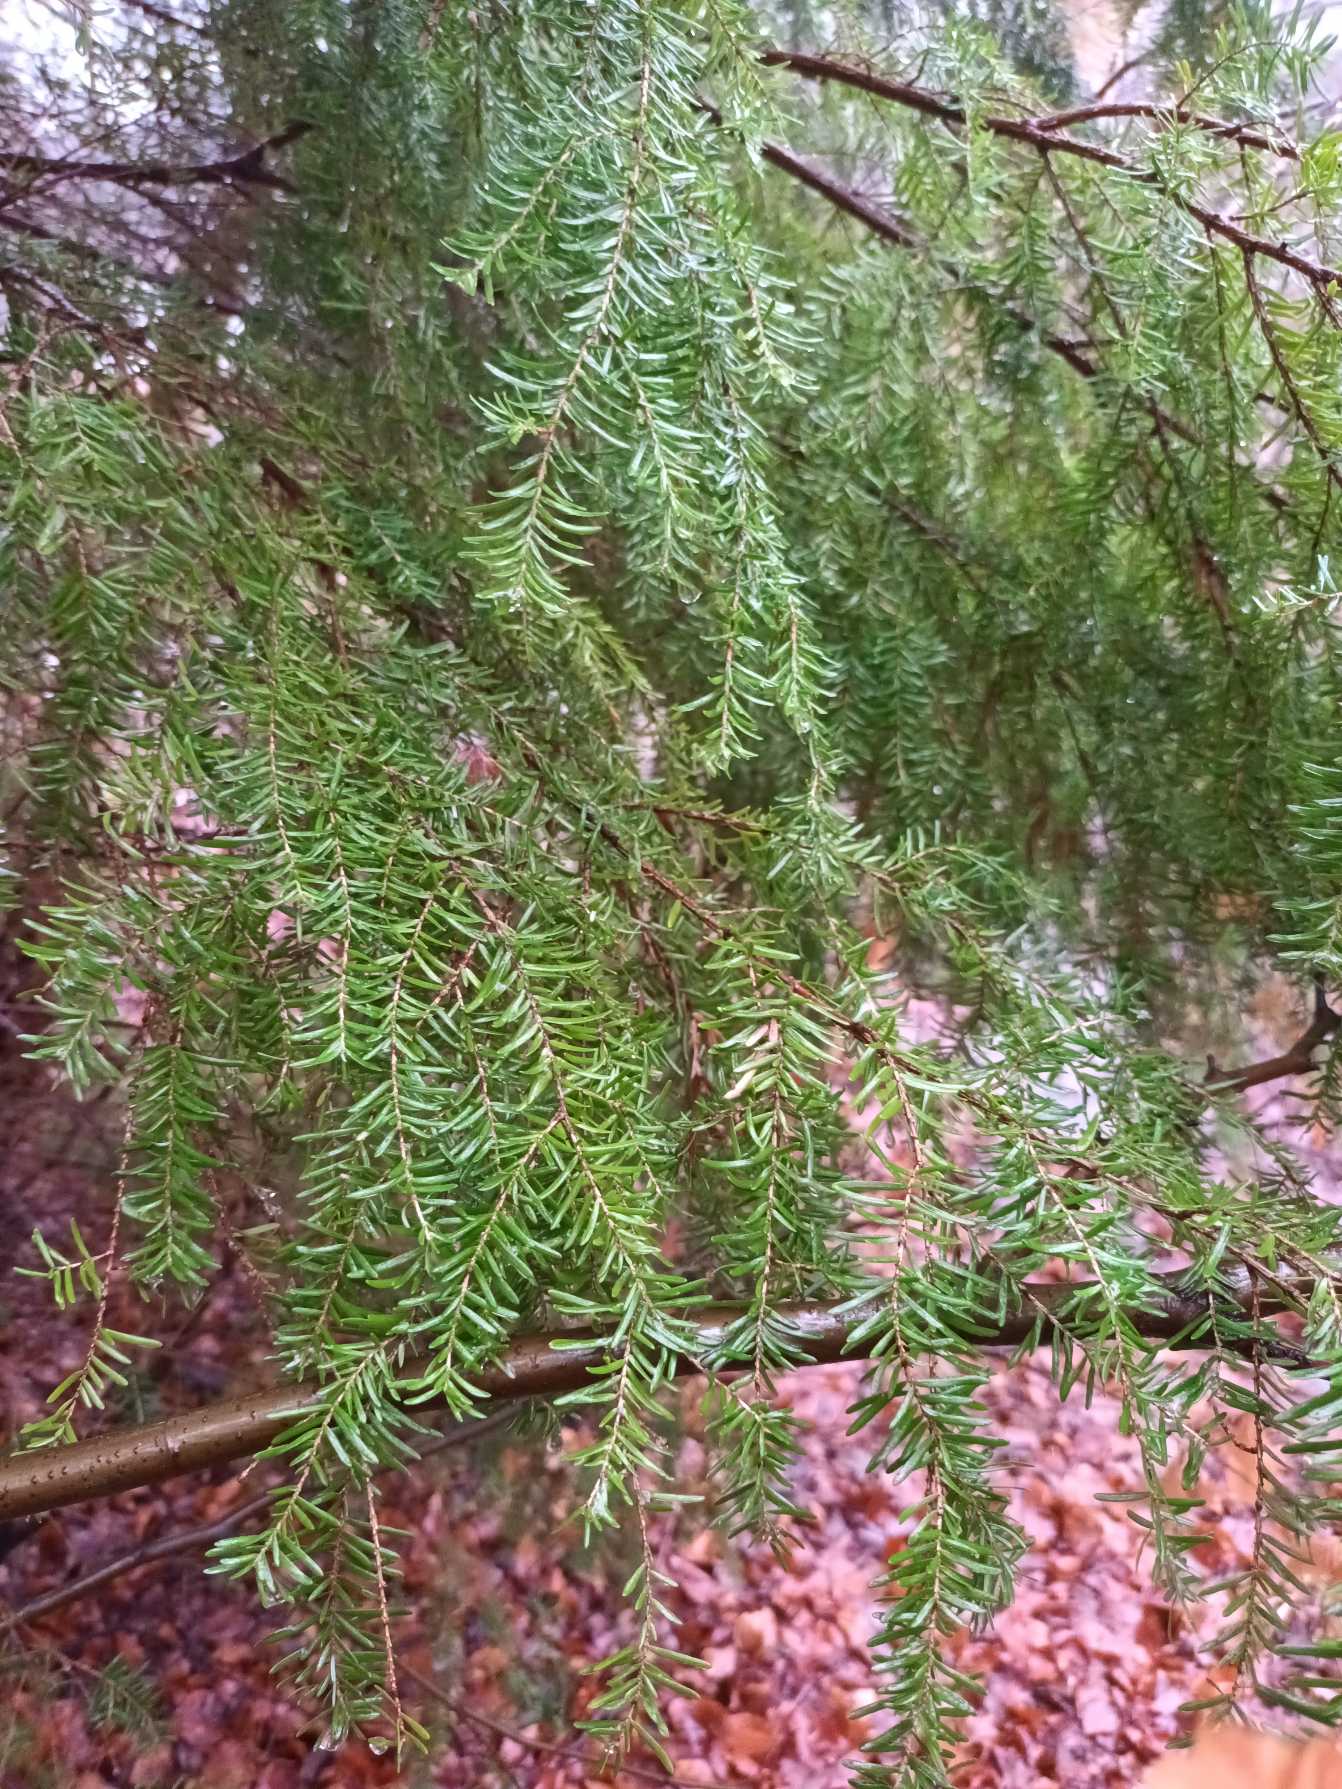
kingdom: Plantae
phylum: Tracheophyta
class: Pinopsida
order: Pinales
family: Pinaceae
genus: Tsuga
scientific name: Tsuga heterophylla
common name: Skarntydegran
